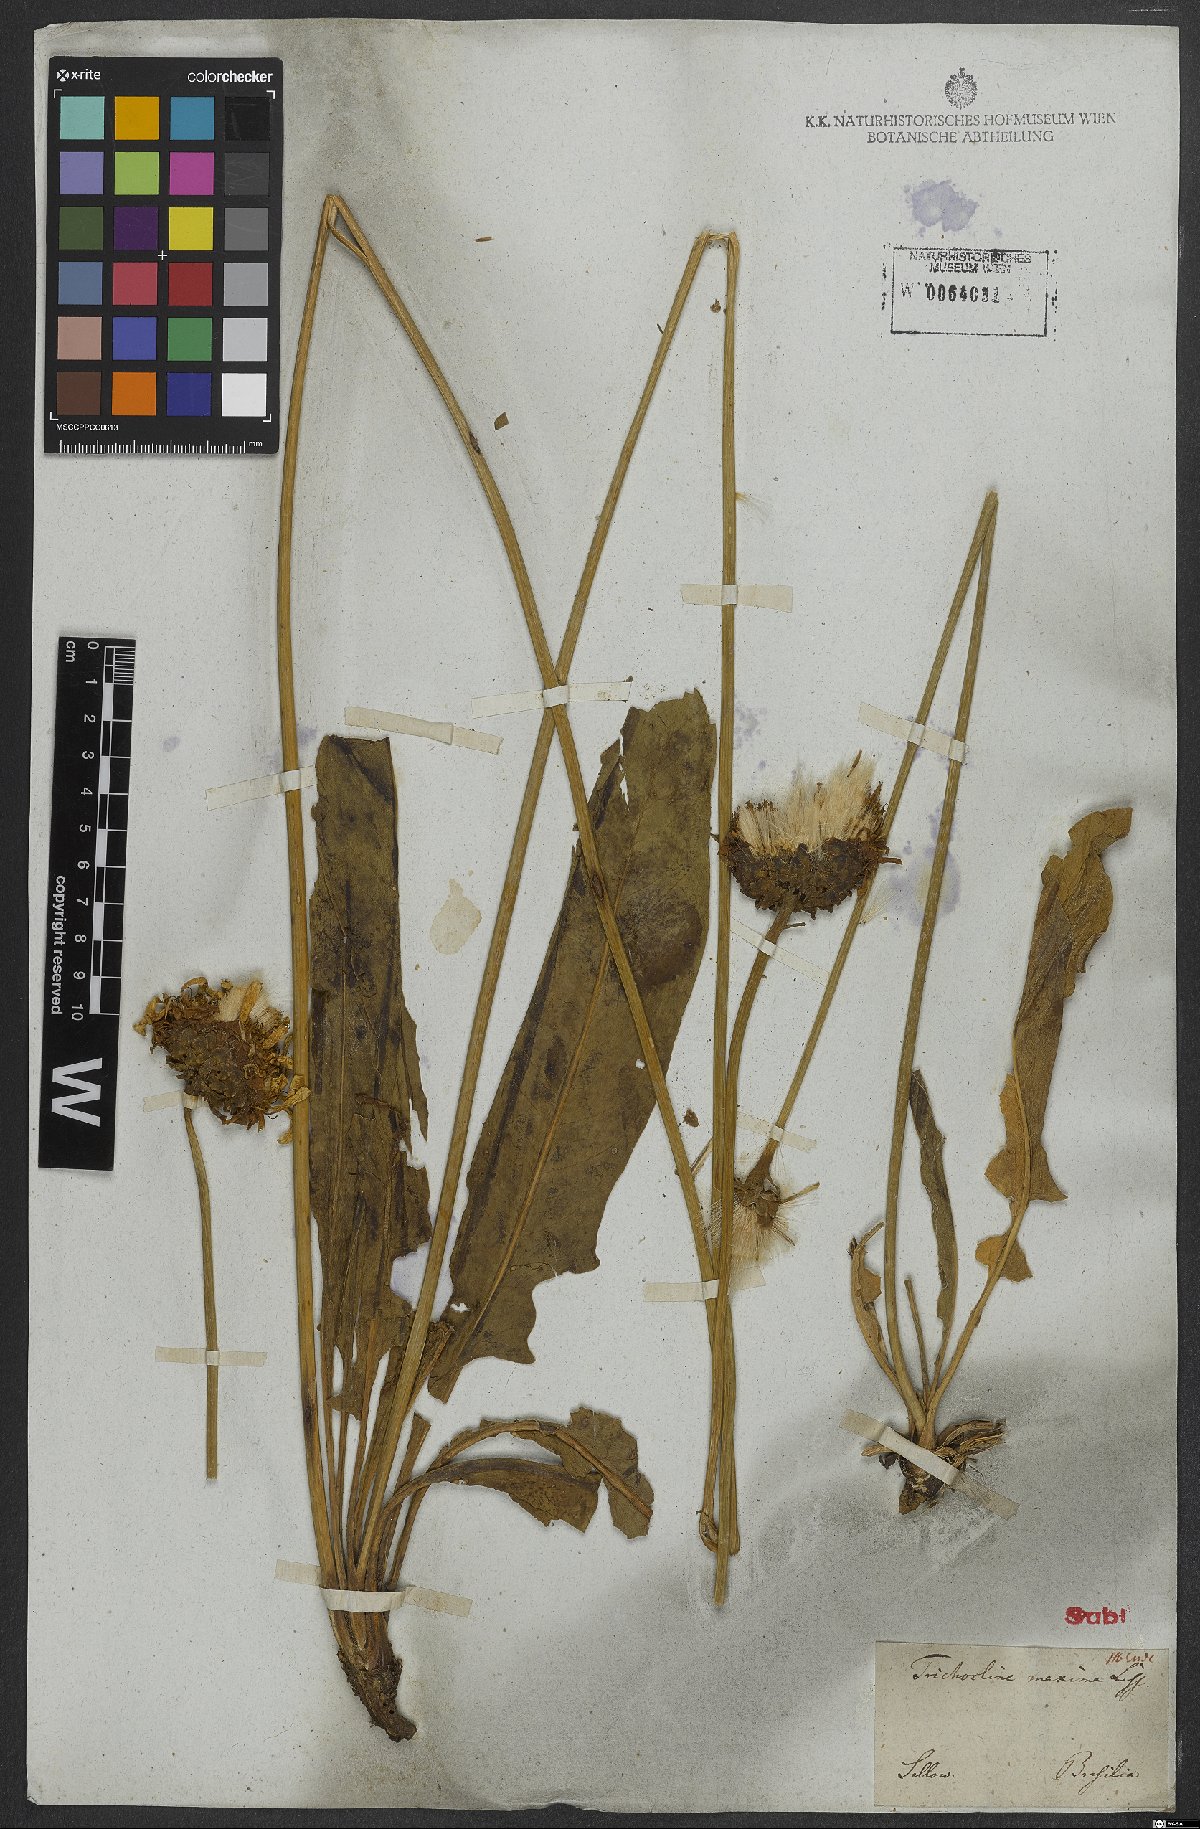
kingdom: Plantae
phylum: Tracheophyta
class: Magnoliopsida
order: Asterales
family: Asteraceae
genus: Trichocline
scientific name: Trichocline maxima
